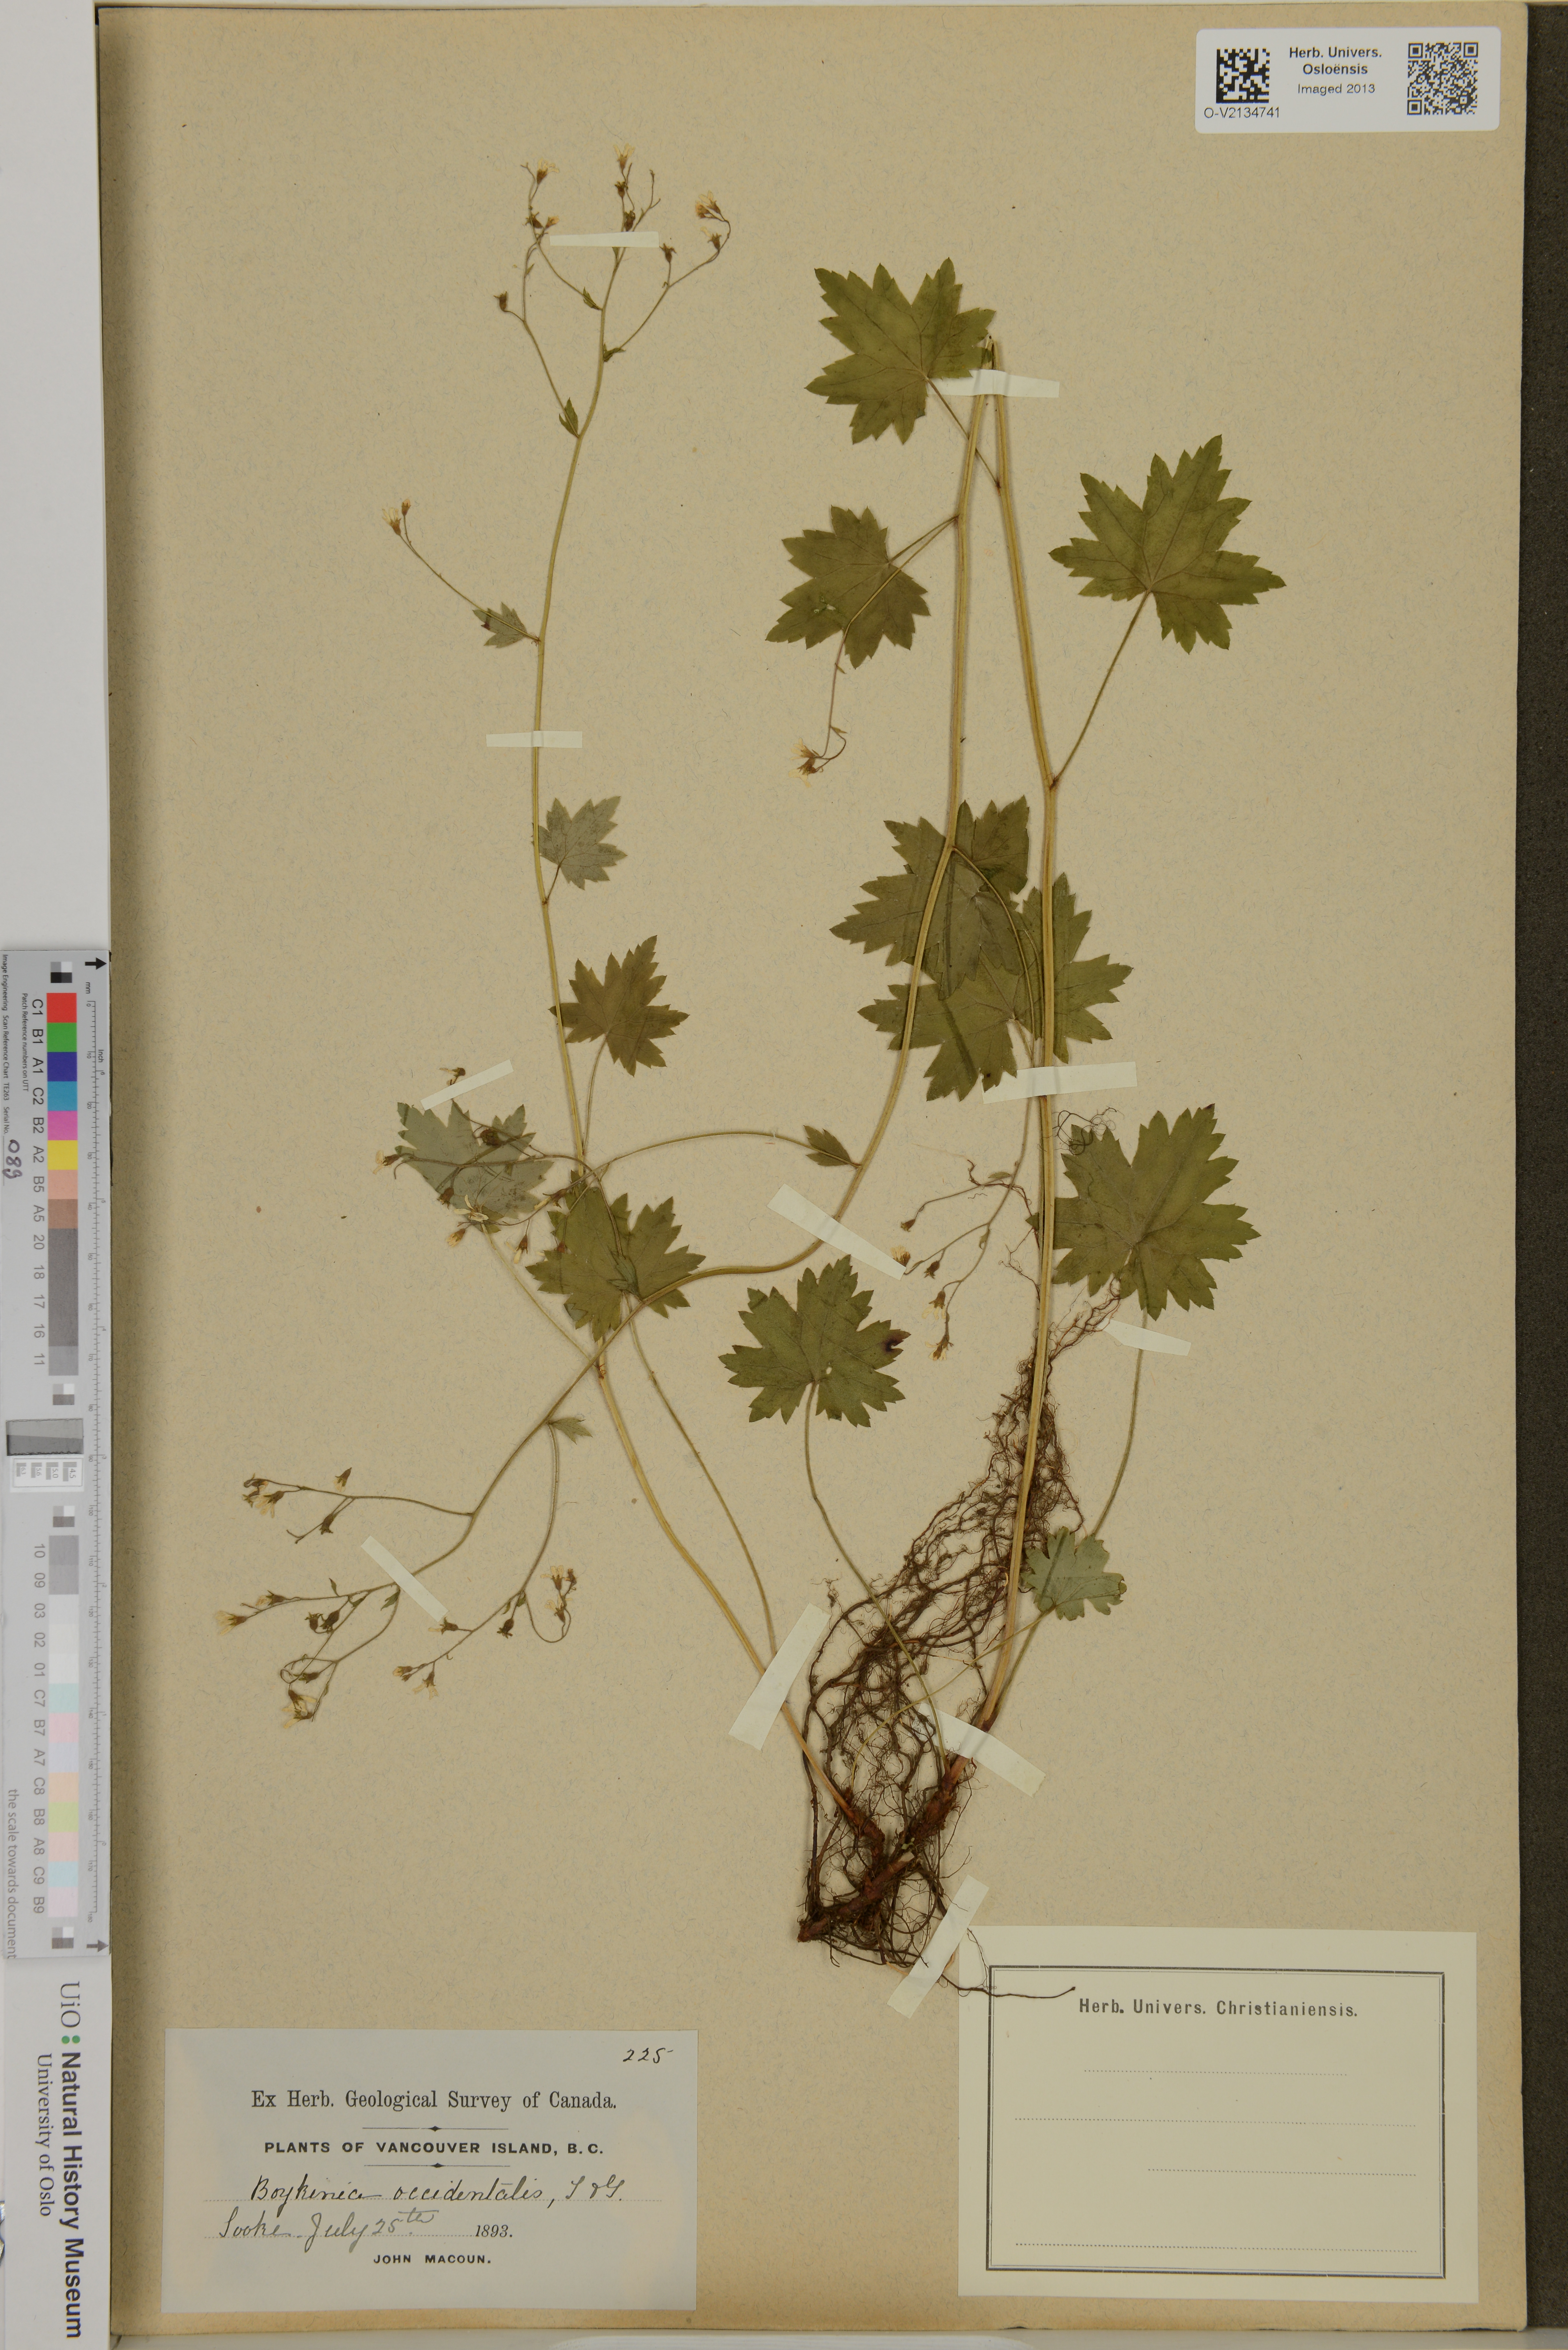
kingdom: Plantae
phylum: Tracheophyta
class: Magnoliopsida
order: Saxifragales
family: Saxifragaceae
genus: Boykinia
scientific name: Boykinia occidentalis
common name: Coast boykinia
